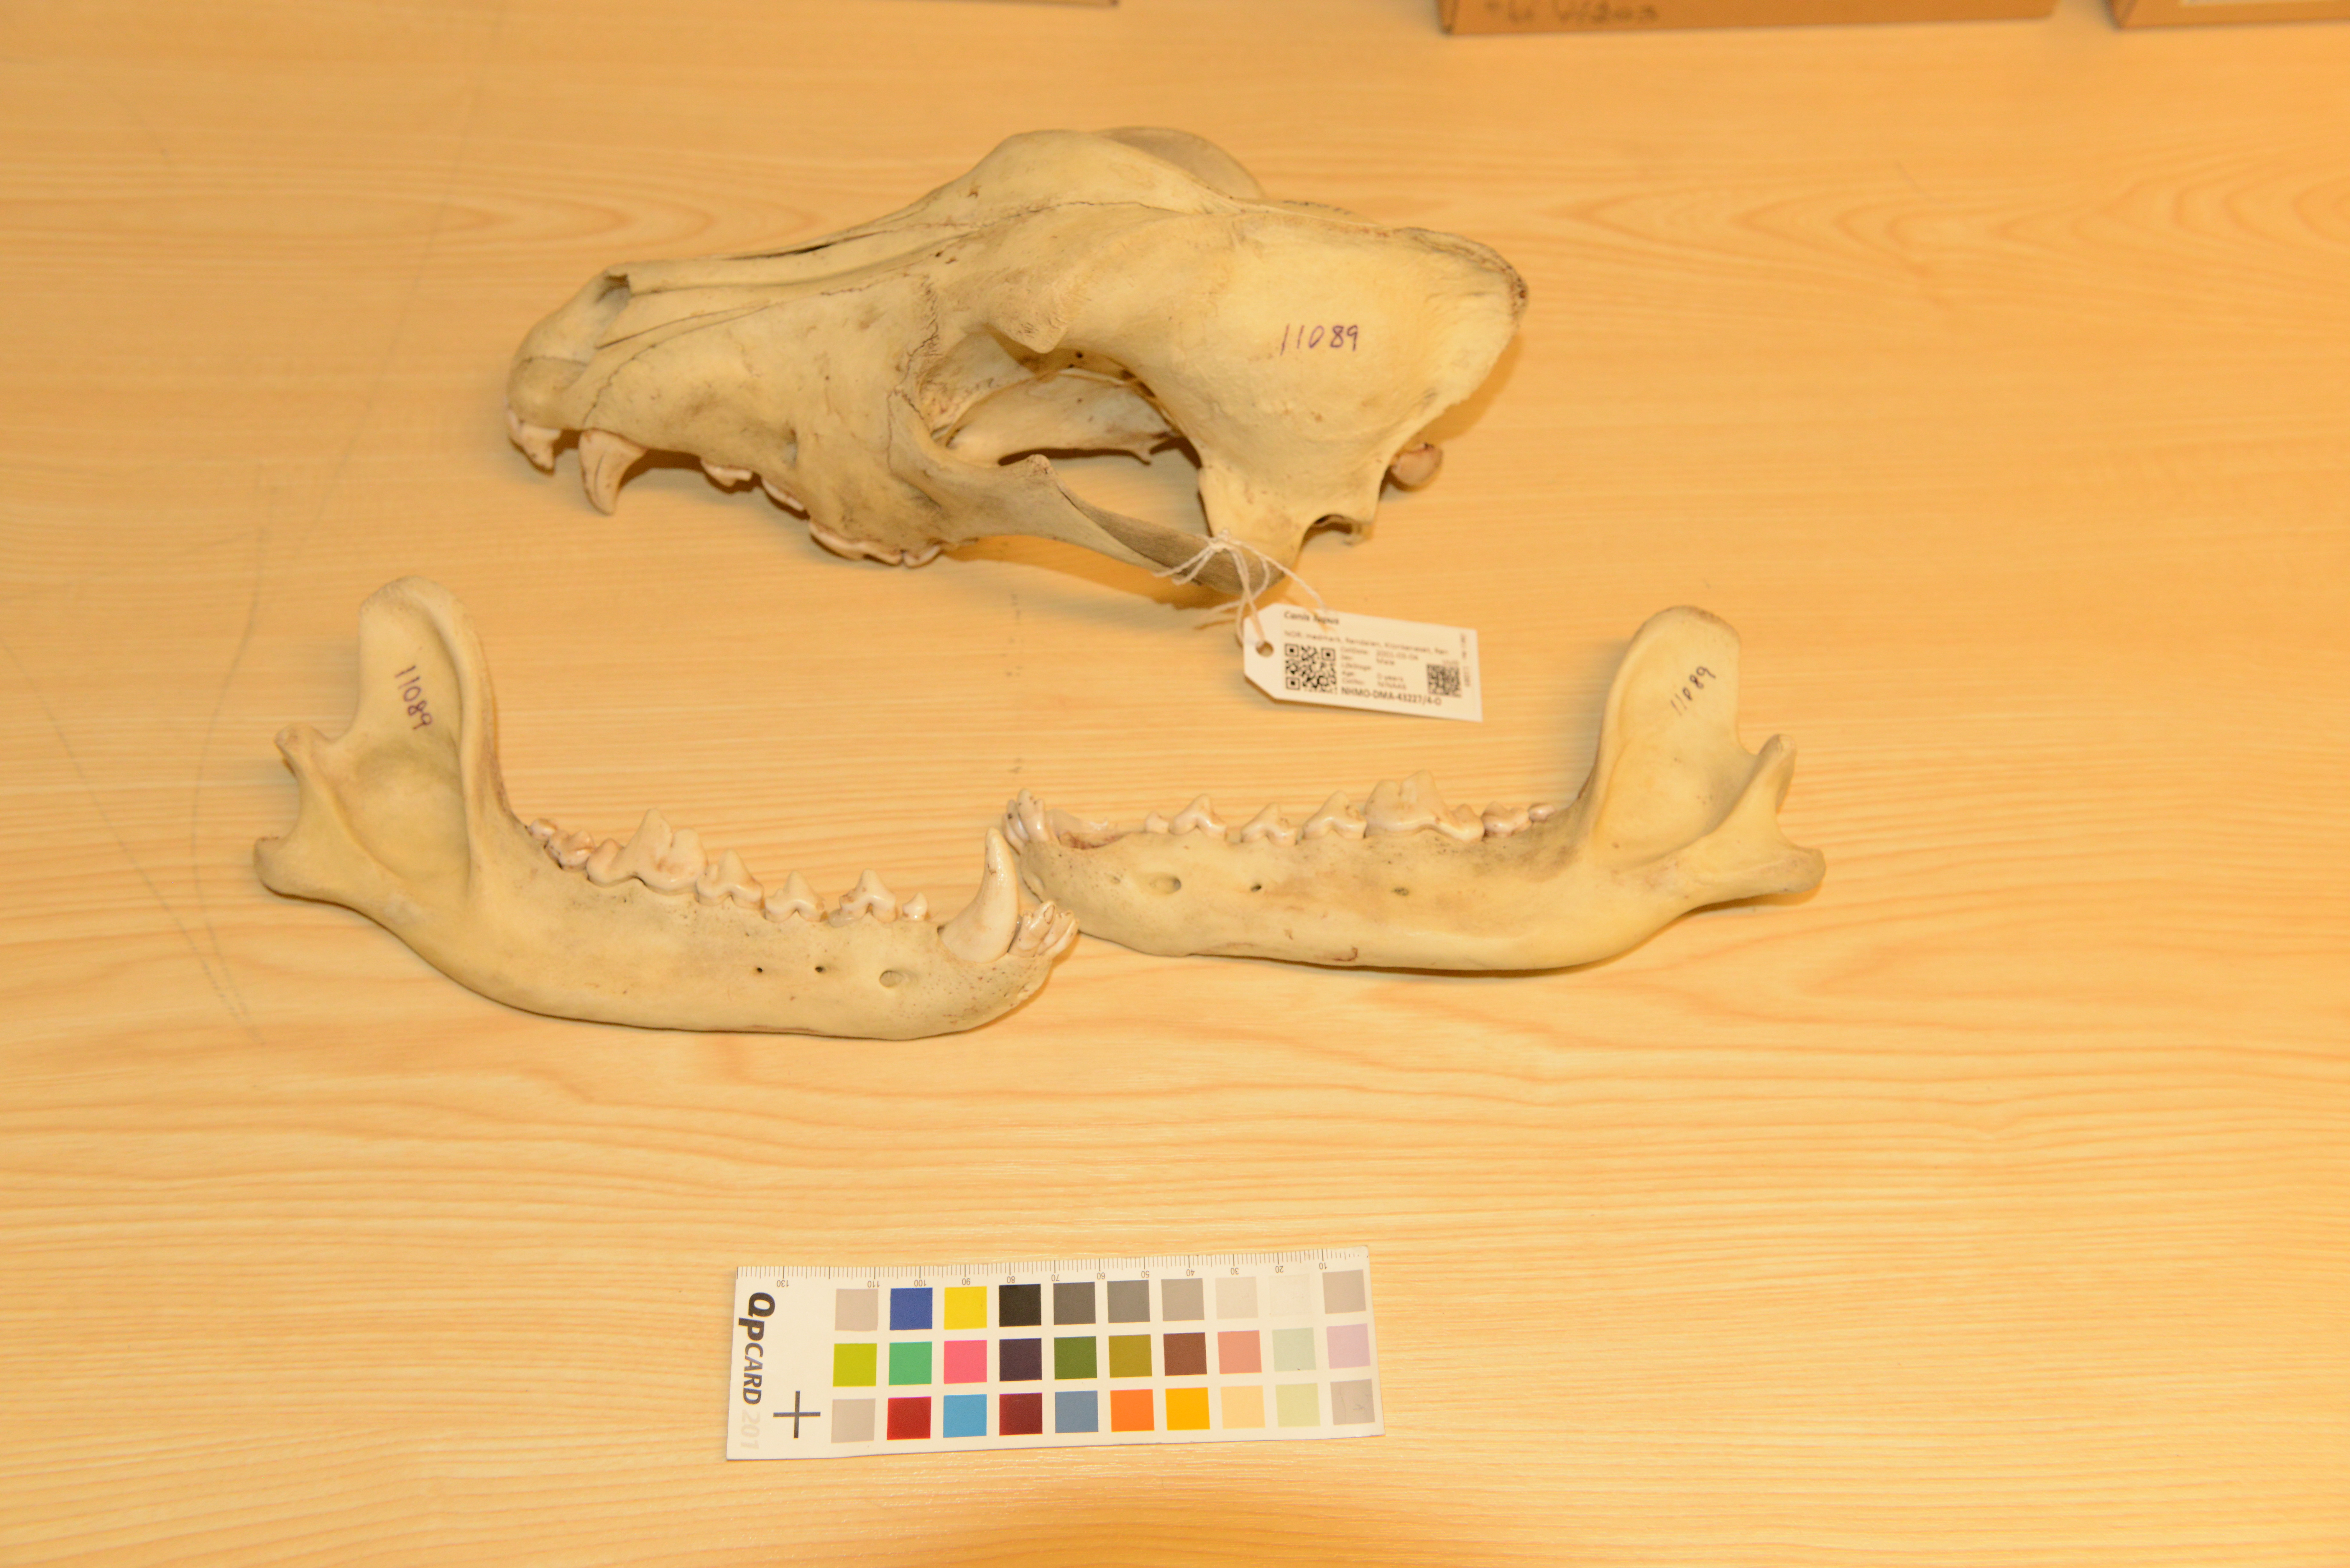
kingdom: Animalia
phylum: Chordata
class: Mammalia
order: Carnivora
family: Canidae
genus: Canis
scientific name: Canis lupus
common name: Gray wolf
